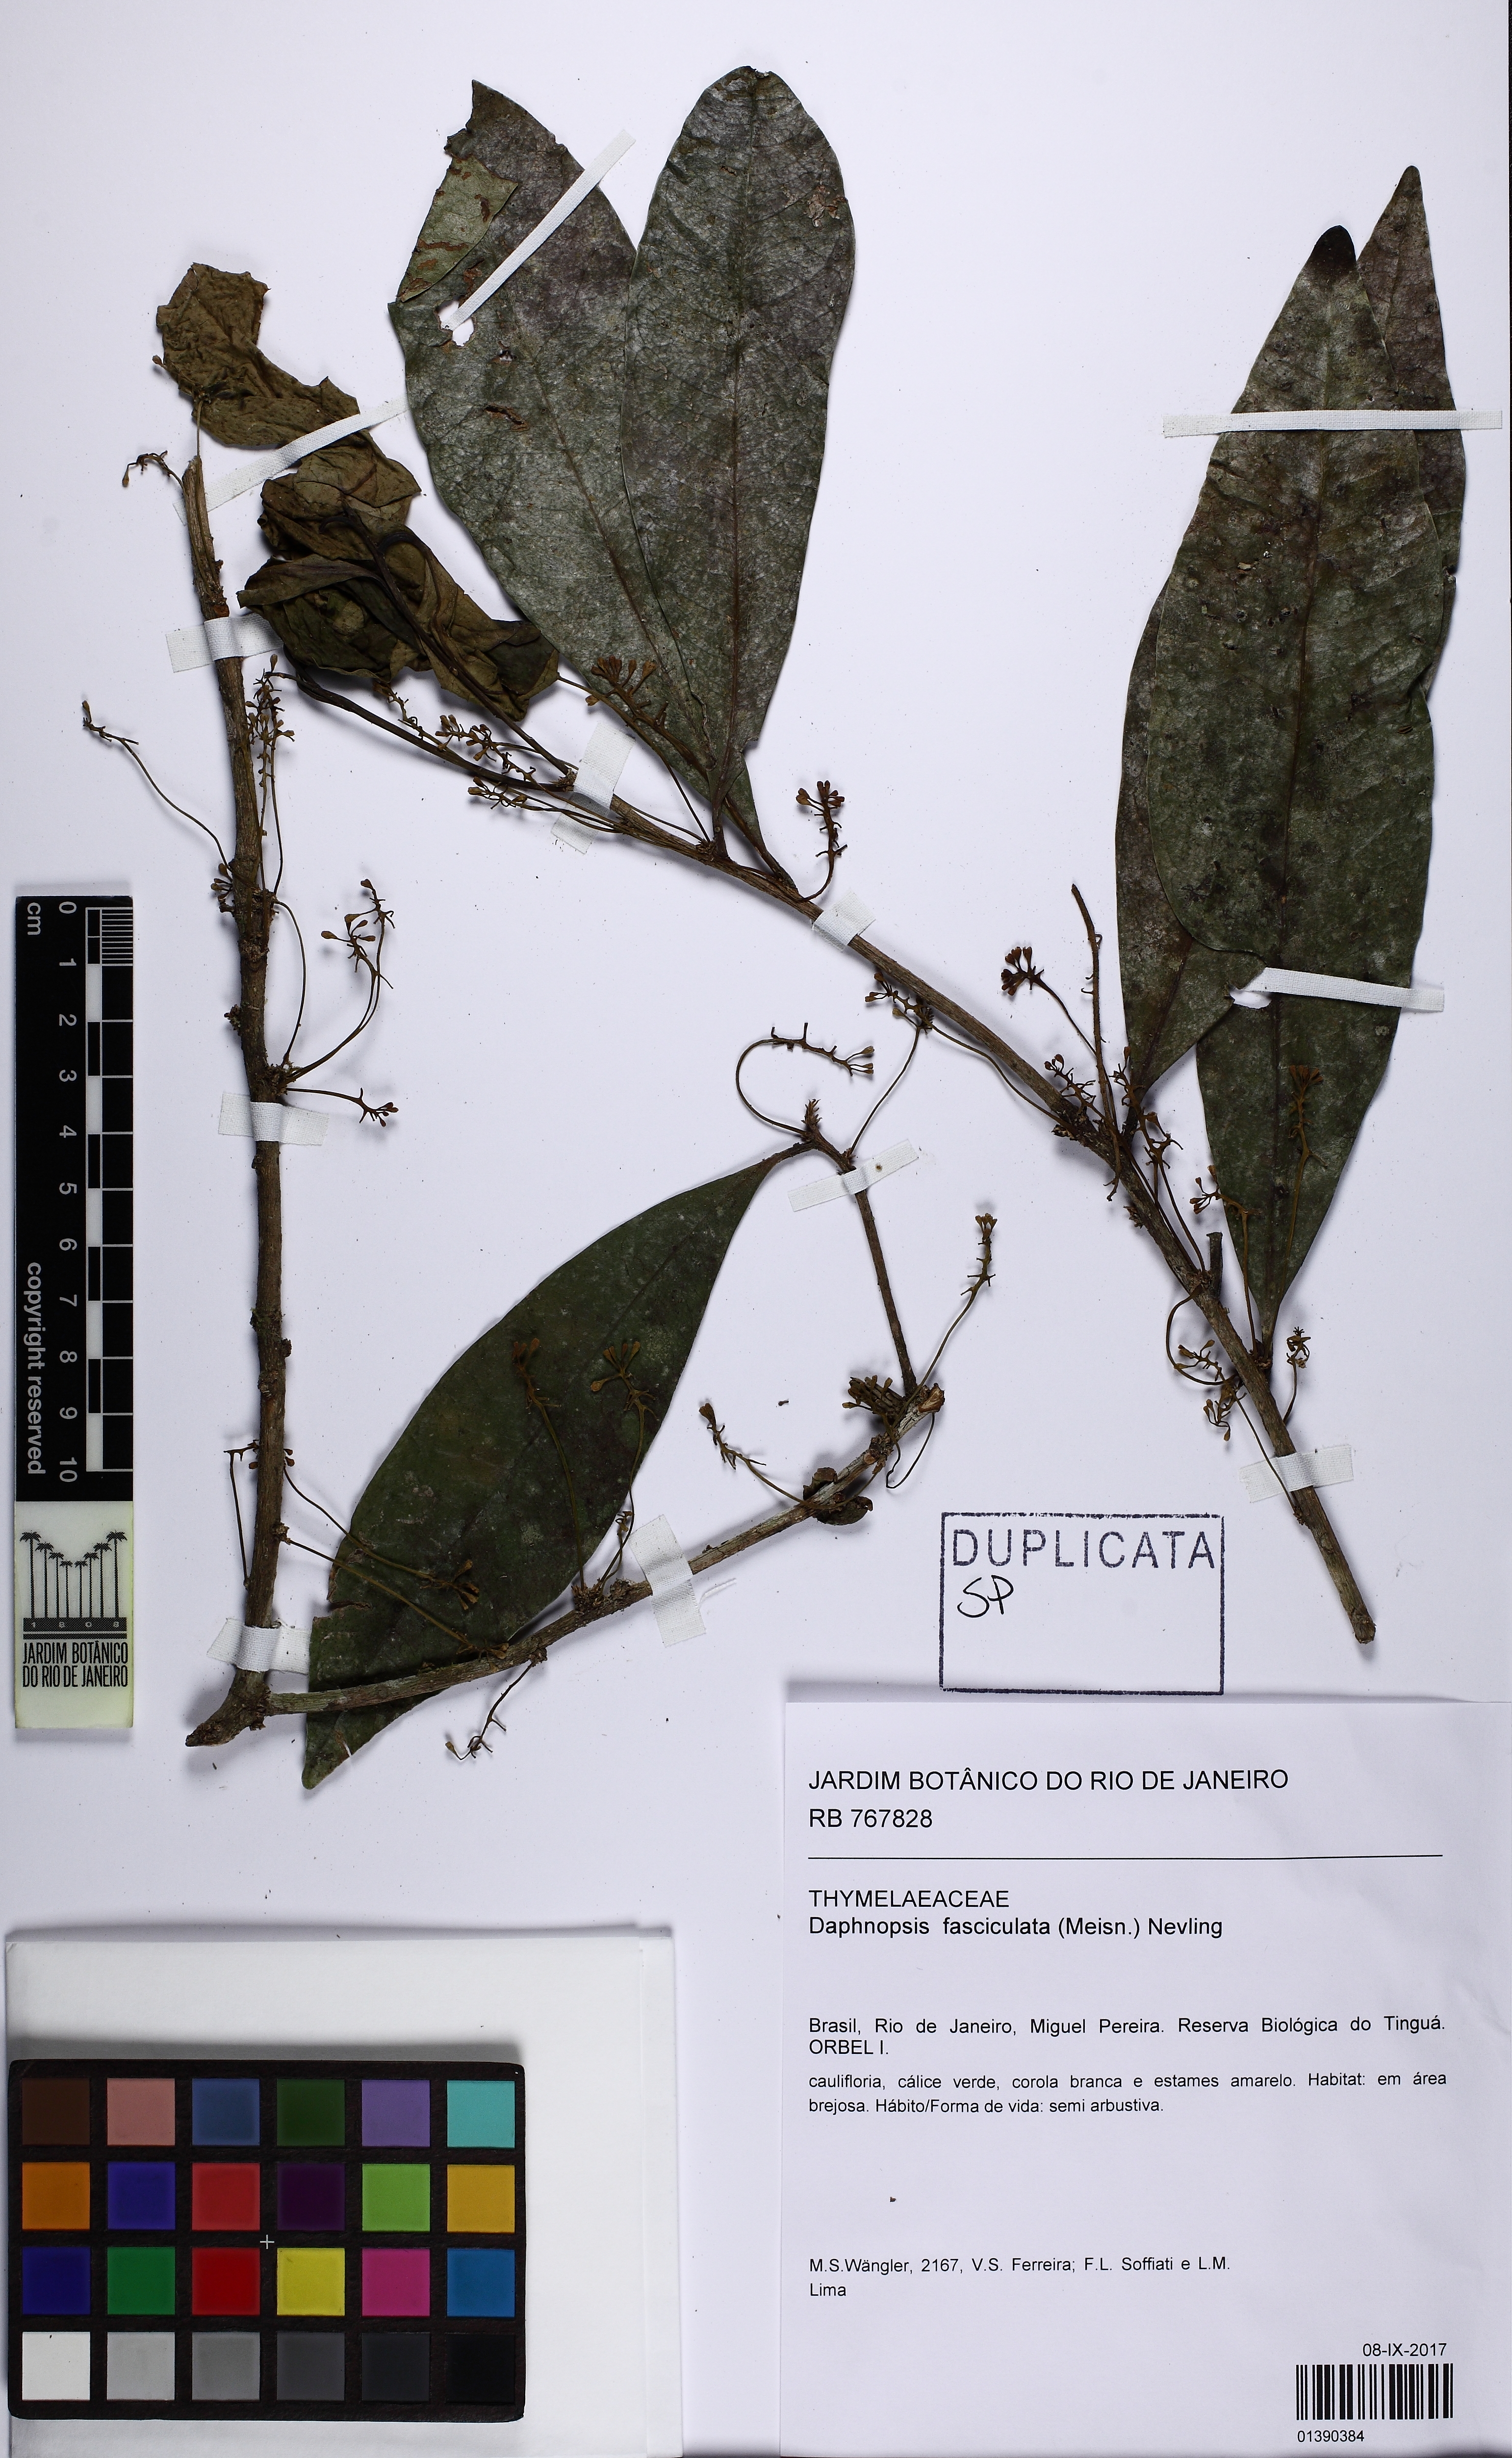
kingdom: Plantae
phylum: Tracheophyta
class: Magnoliopsida
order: Malvales
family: Thymelaeaceae
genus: Daphnopsis
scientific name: Daphnopsis fasciculata
